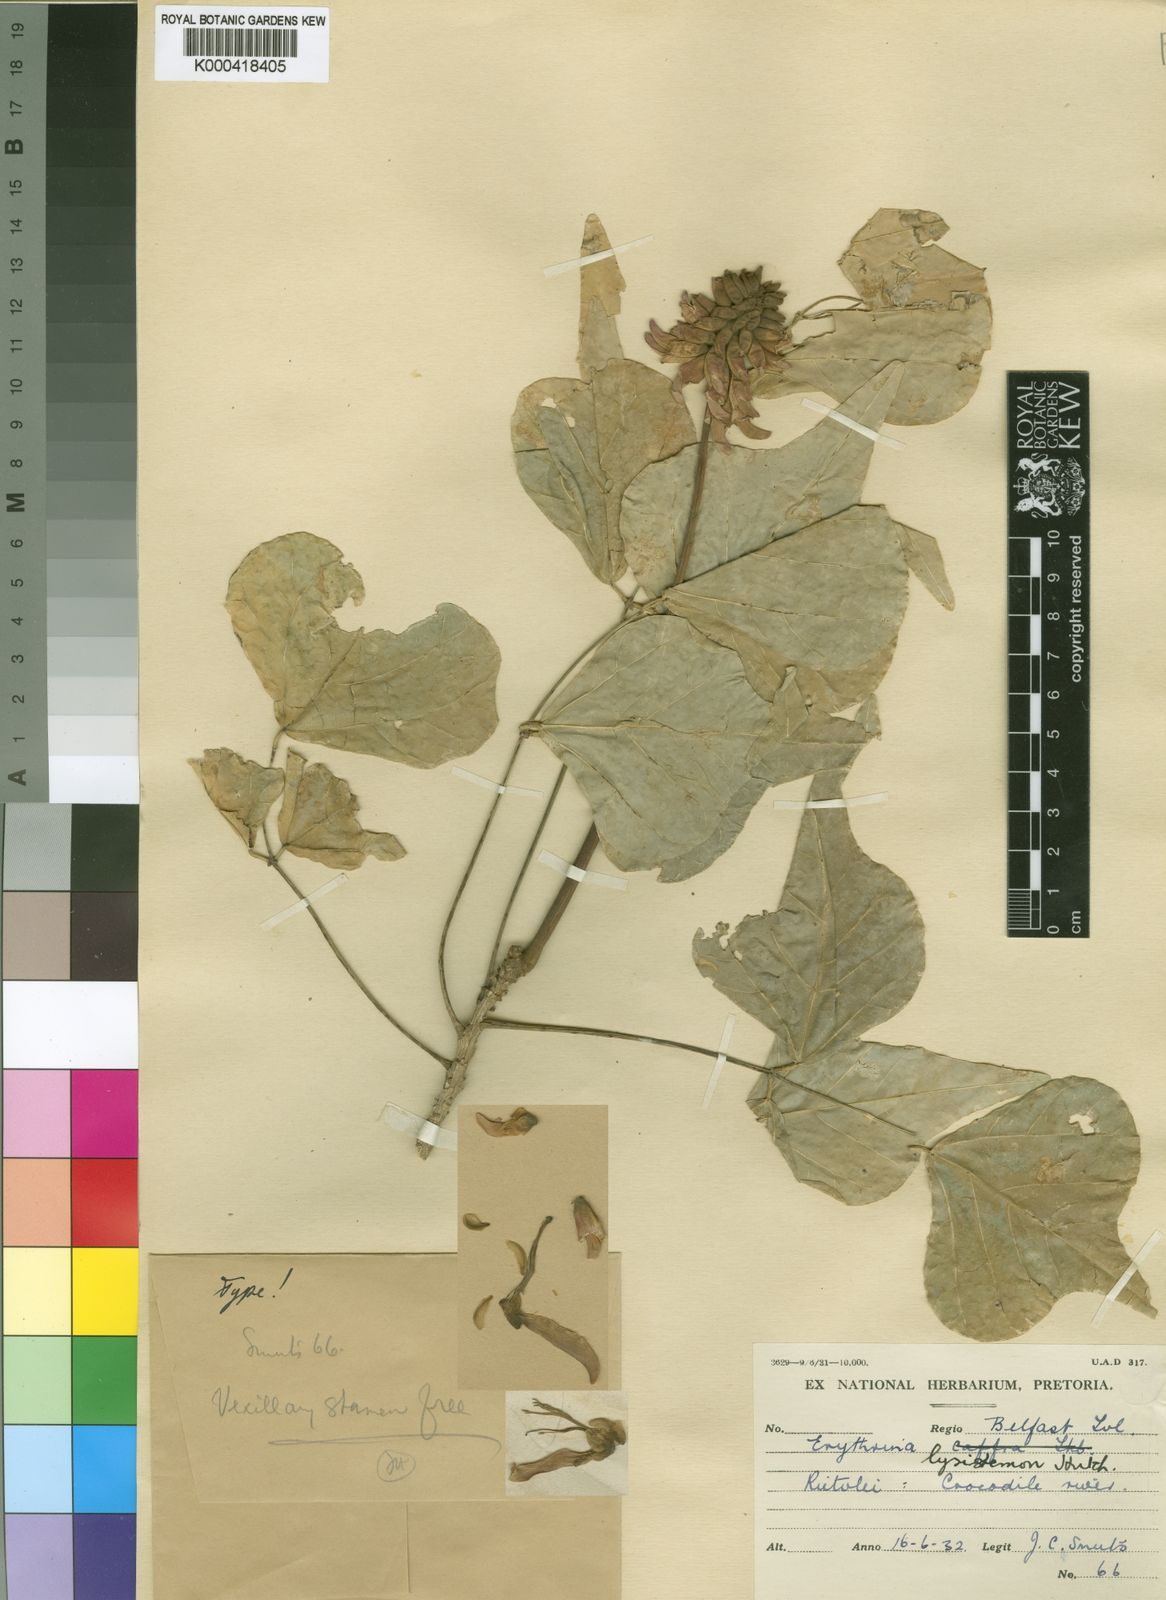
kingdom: Plantae
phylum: Tracheophyta
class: Magnoliopsida
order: Fabales
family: Fabaceae
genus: Erythrina
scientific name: Erythrina lysistemon
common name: Common coral tree
